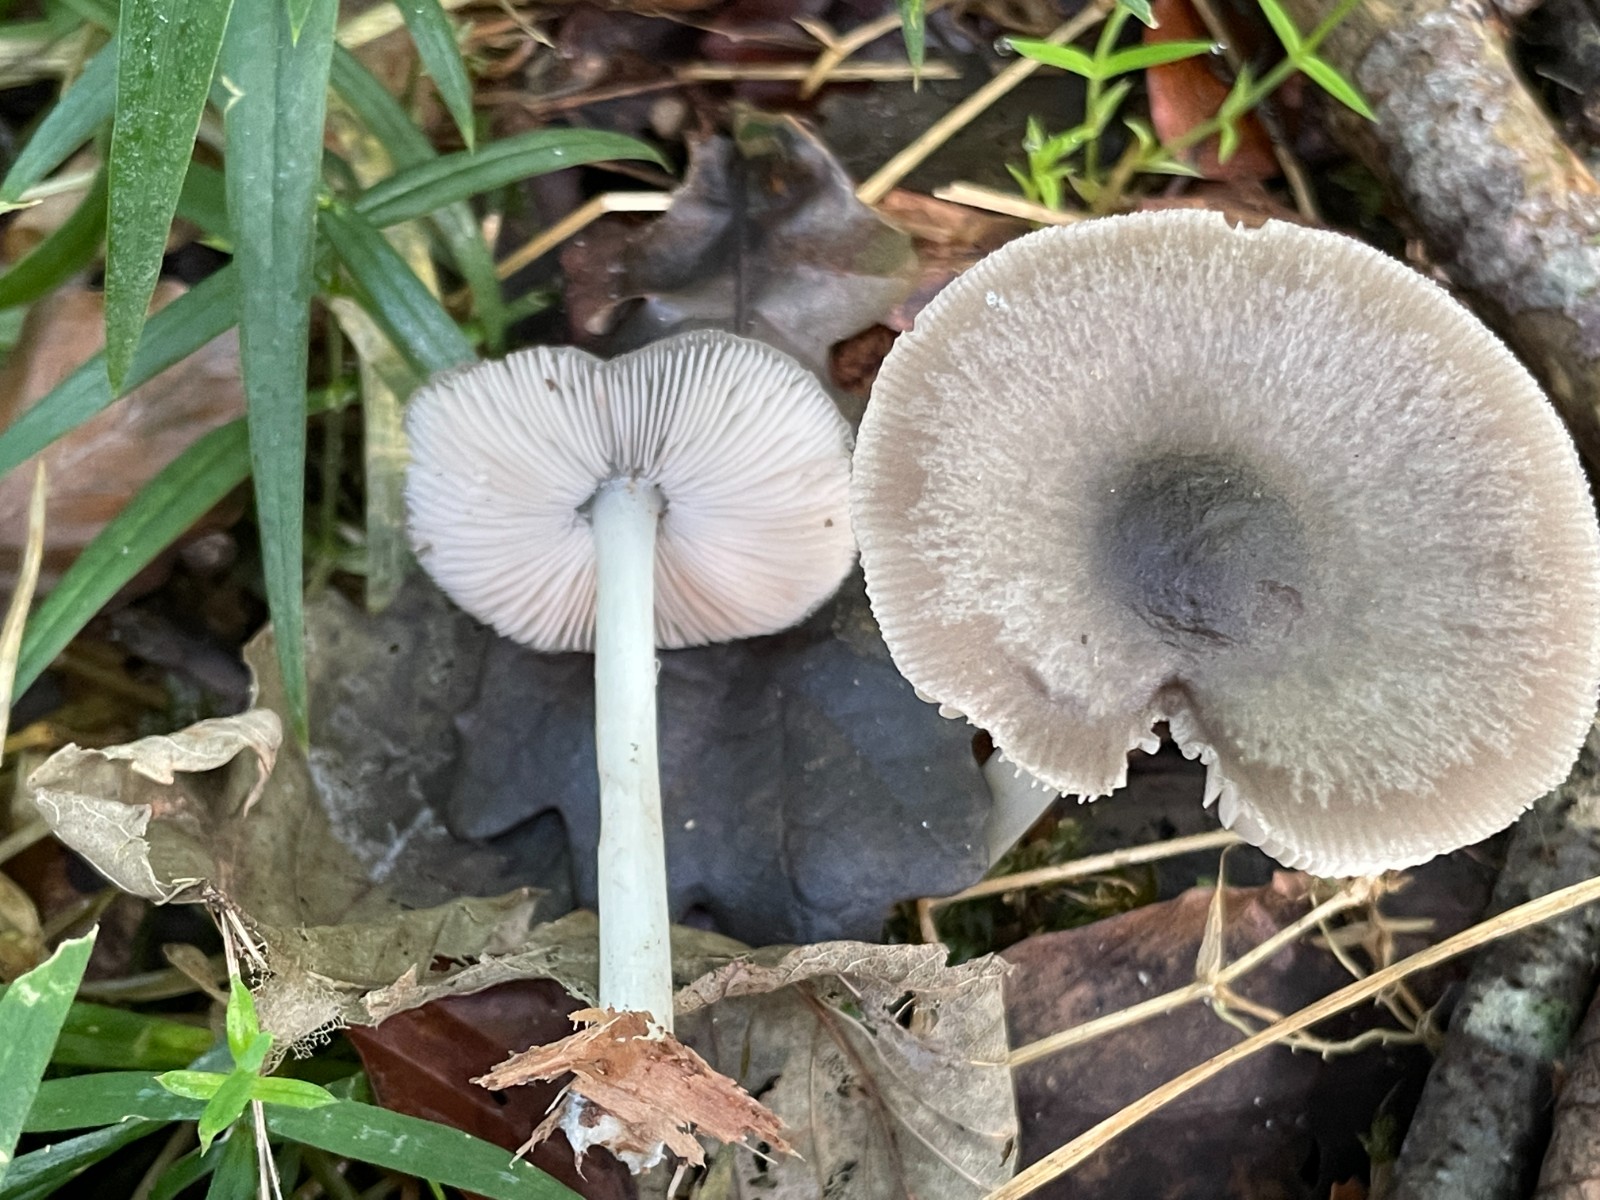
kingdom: Fungi
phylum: Basidiomycota
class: Agaricomycetes
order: Agaricales
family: Pluteaceae
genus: Pluteus
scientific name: Pluteus salicinus
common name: stiv skærmhat
